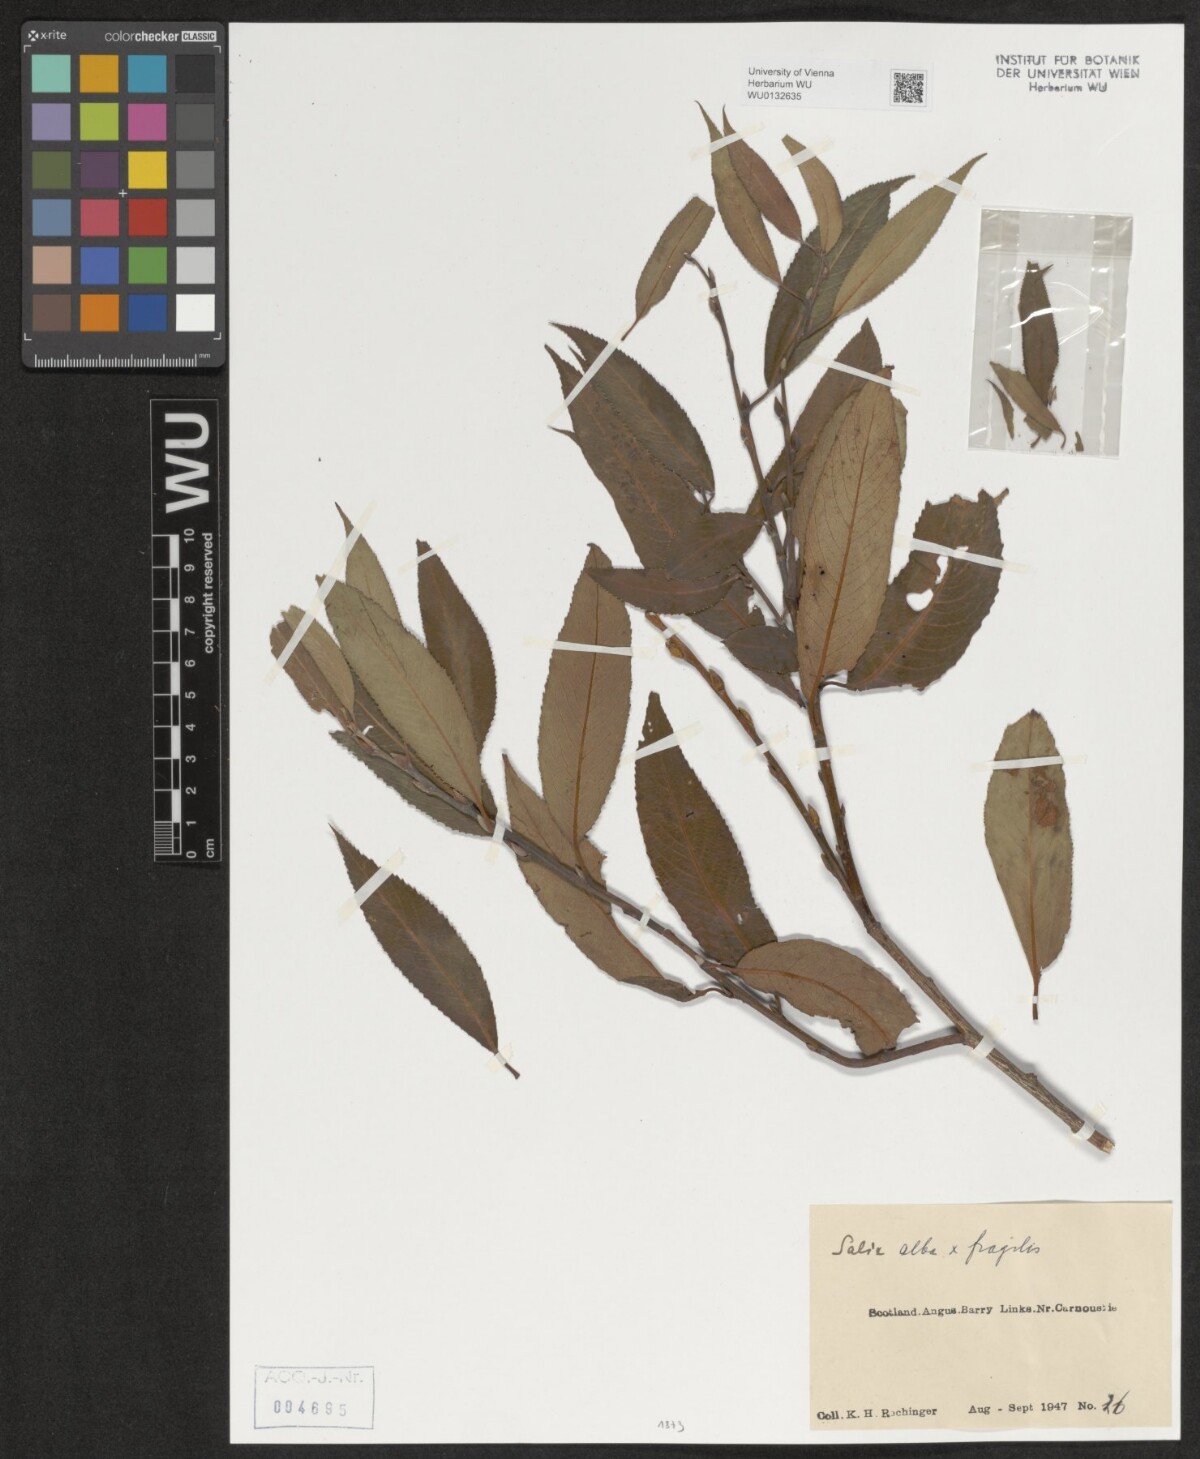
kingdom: Plantae
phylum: Tracheophyta
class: Magnoliopsida
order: Malpighiales
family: Salicaceae
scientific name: Salicaceae
